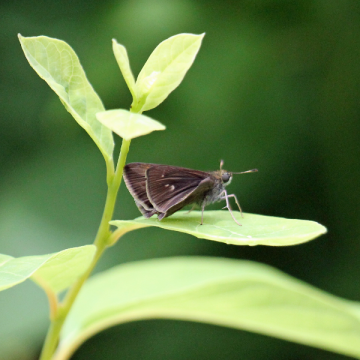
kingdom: Animalia
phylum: Arthropoda
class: Insecta
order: Lepidoptera
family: Hesperiidae
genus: Euphyes
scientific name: Euphyes vestris
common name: Dun Skipper
